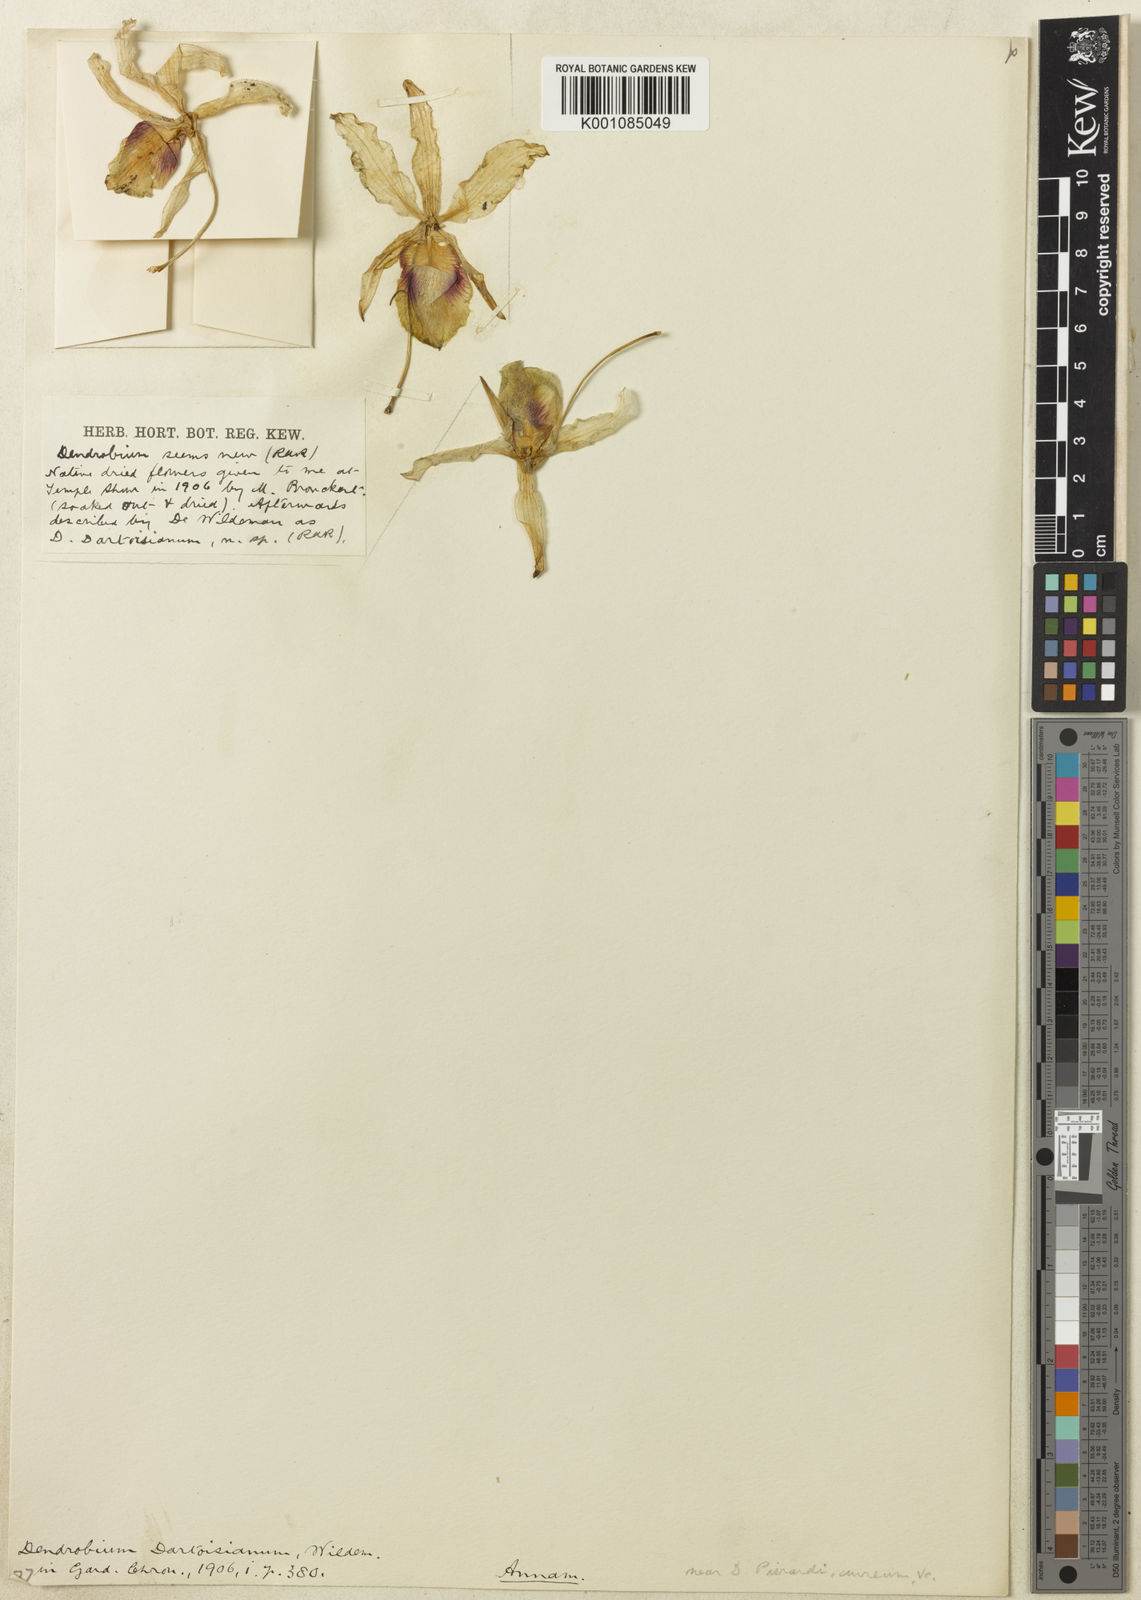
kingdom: Plantae
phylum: Tracheophyta
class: Liliopsida
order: Asparagales
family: Orchidaceae
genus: Dendrobium
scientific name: Dendrobium tortile
